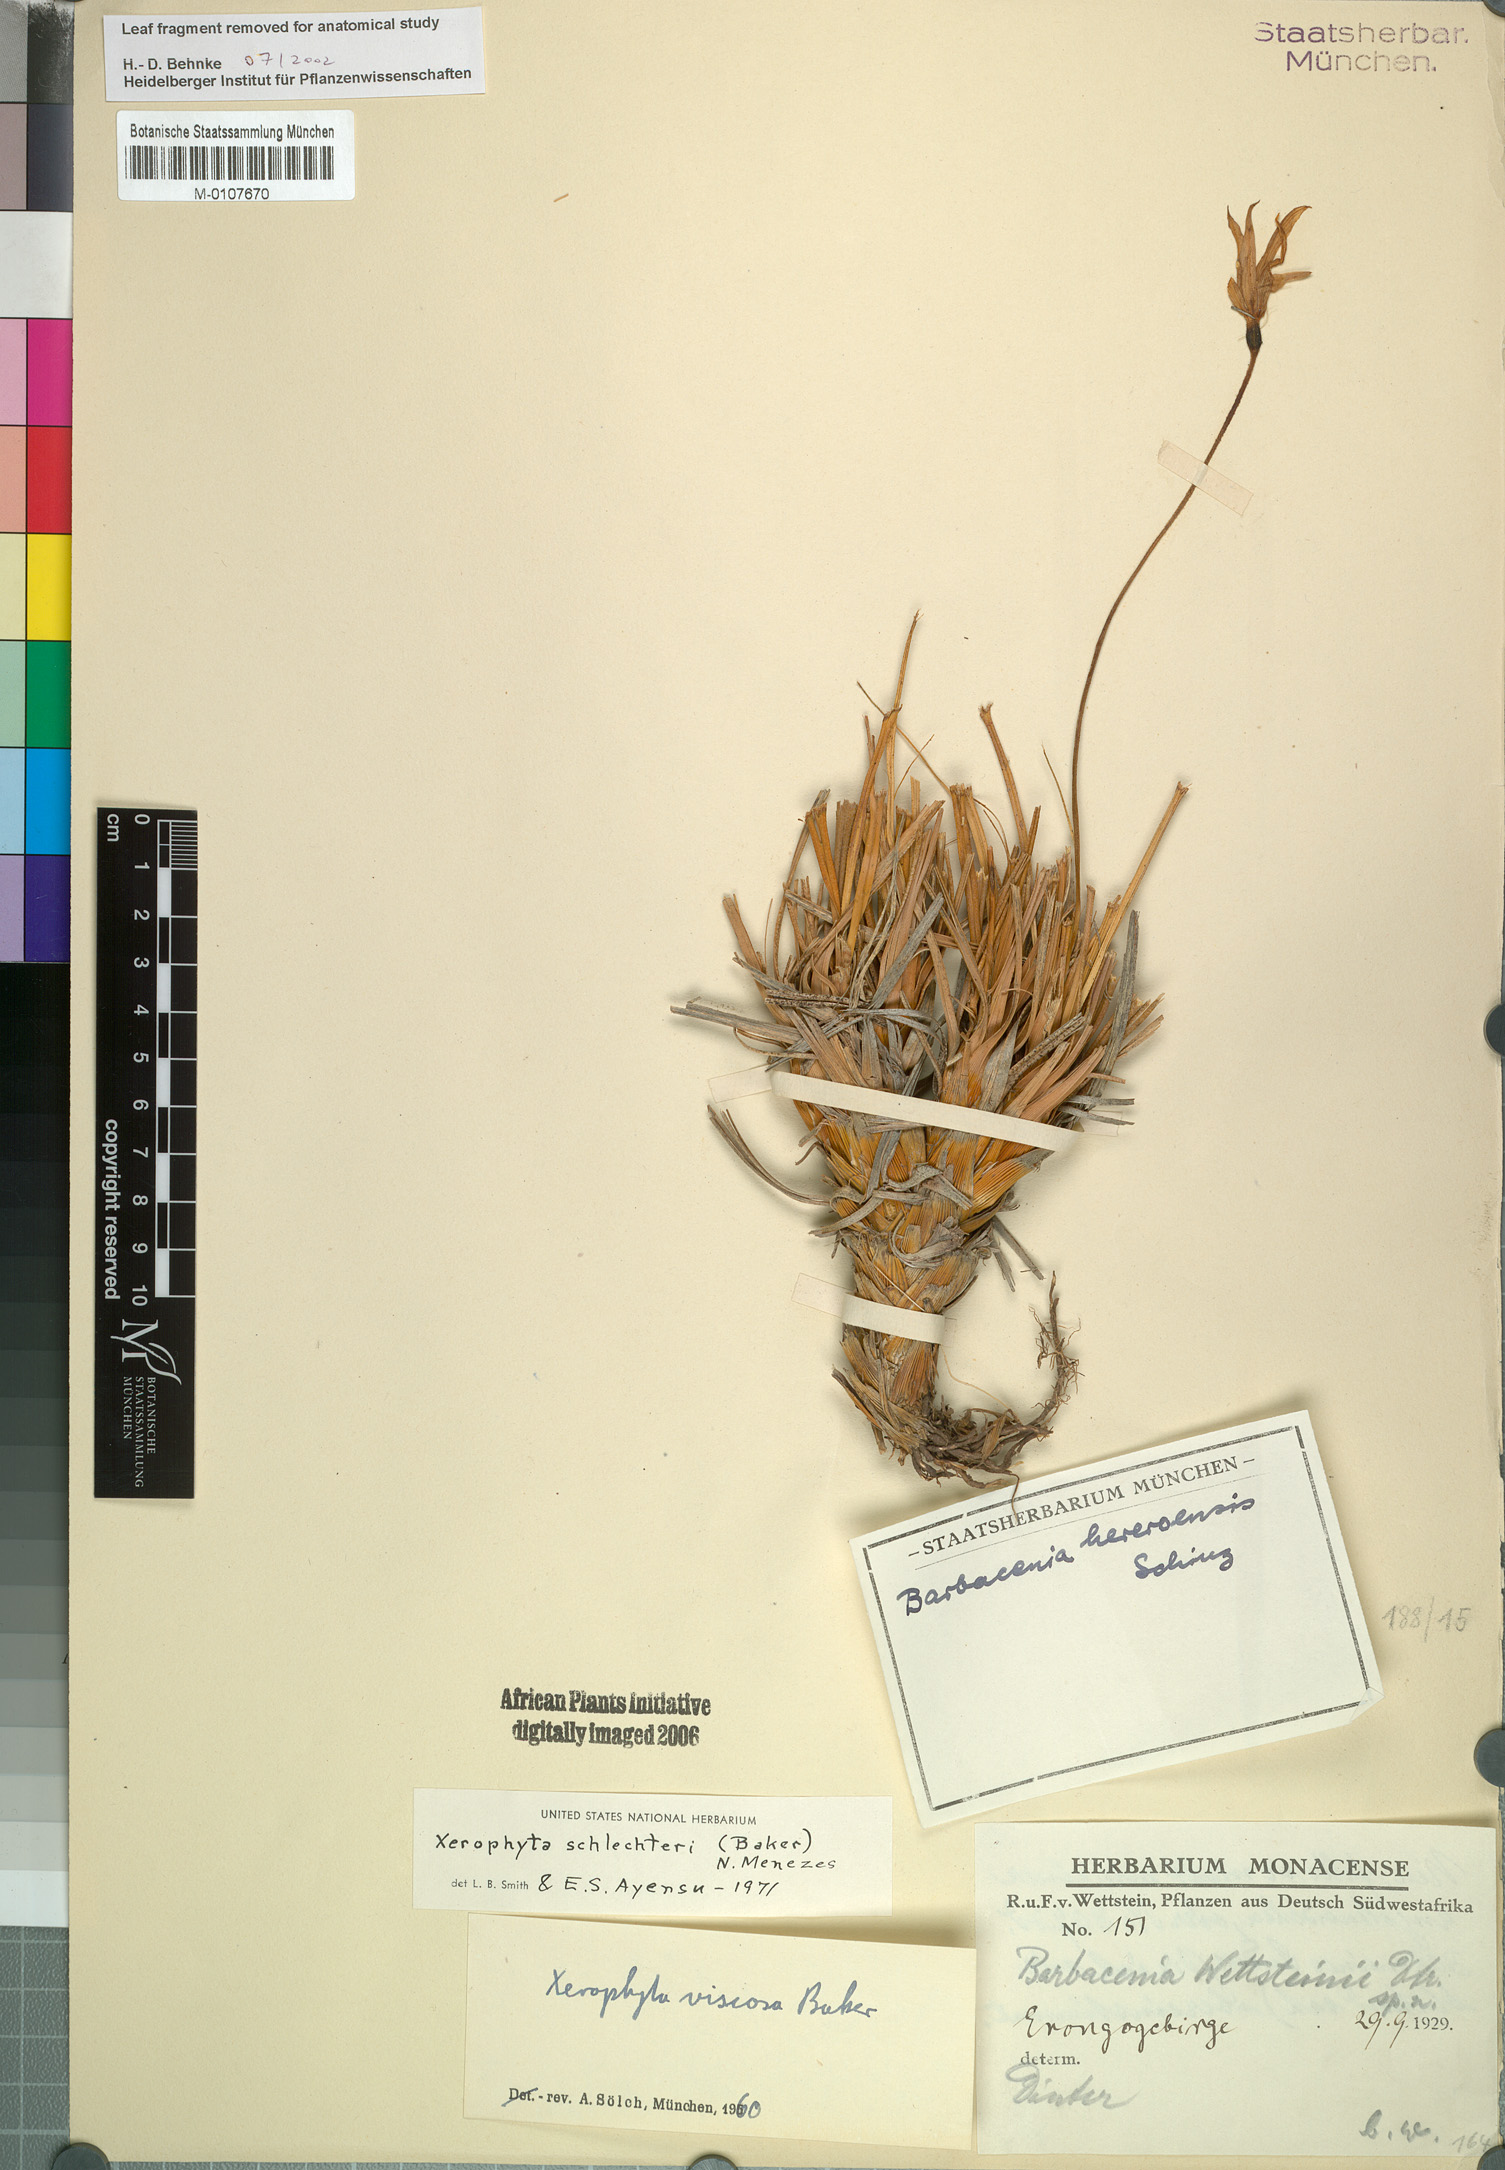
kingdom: Plantae
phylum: Tracheophyta
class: Liliopsida
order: Pandanales
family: Velloziaceae
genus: Xerophyta
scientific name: Xerophyta schlechteri
